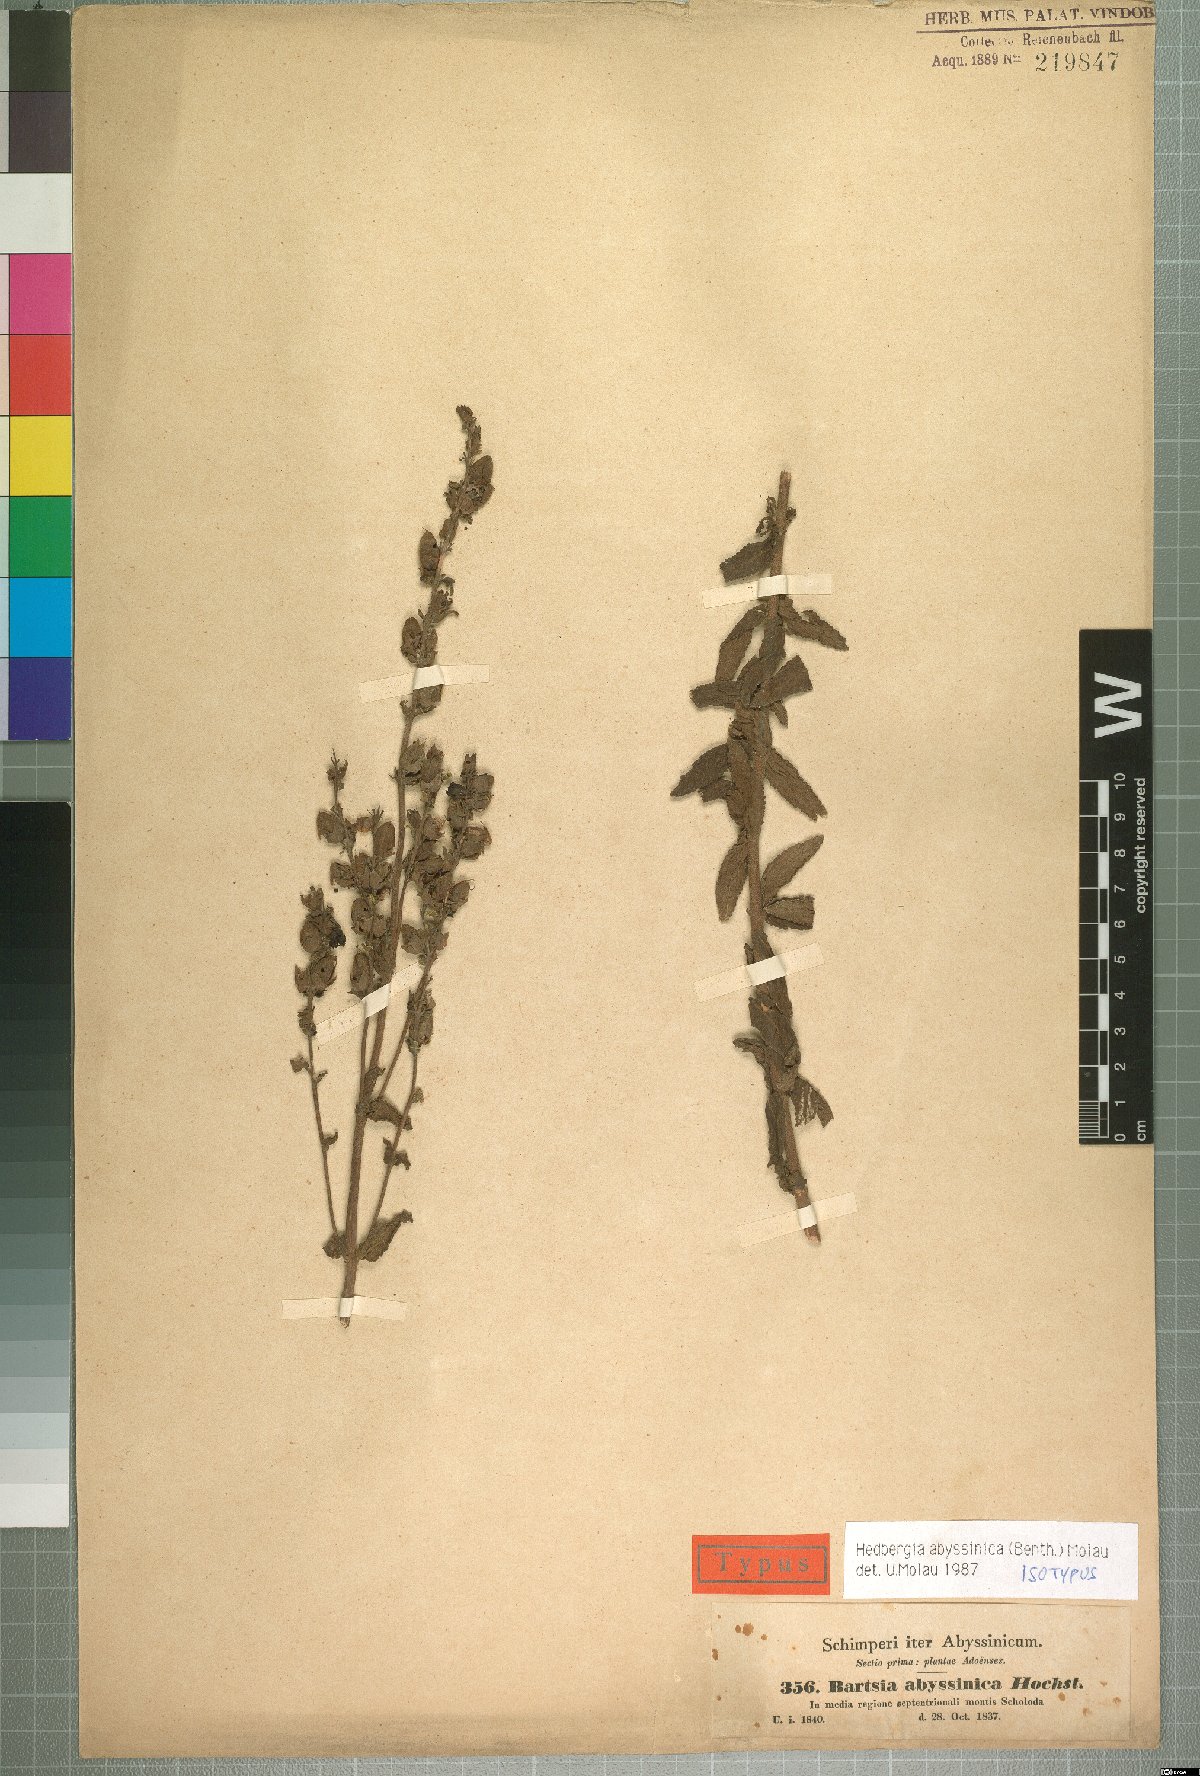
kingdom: Plantae
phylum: Tracheophyta
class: Magnoliopsida
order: Lamiales
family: Orobanchaceae
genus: Hedbergia
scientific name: Hedbergia abyssinica
